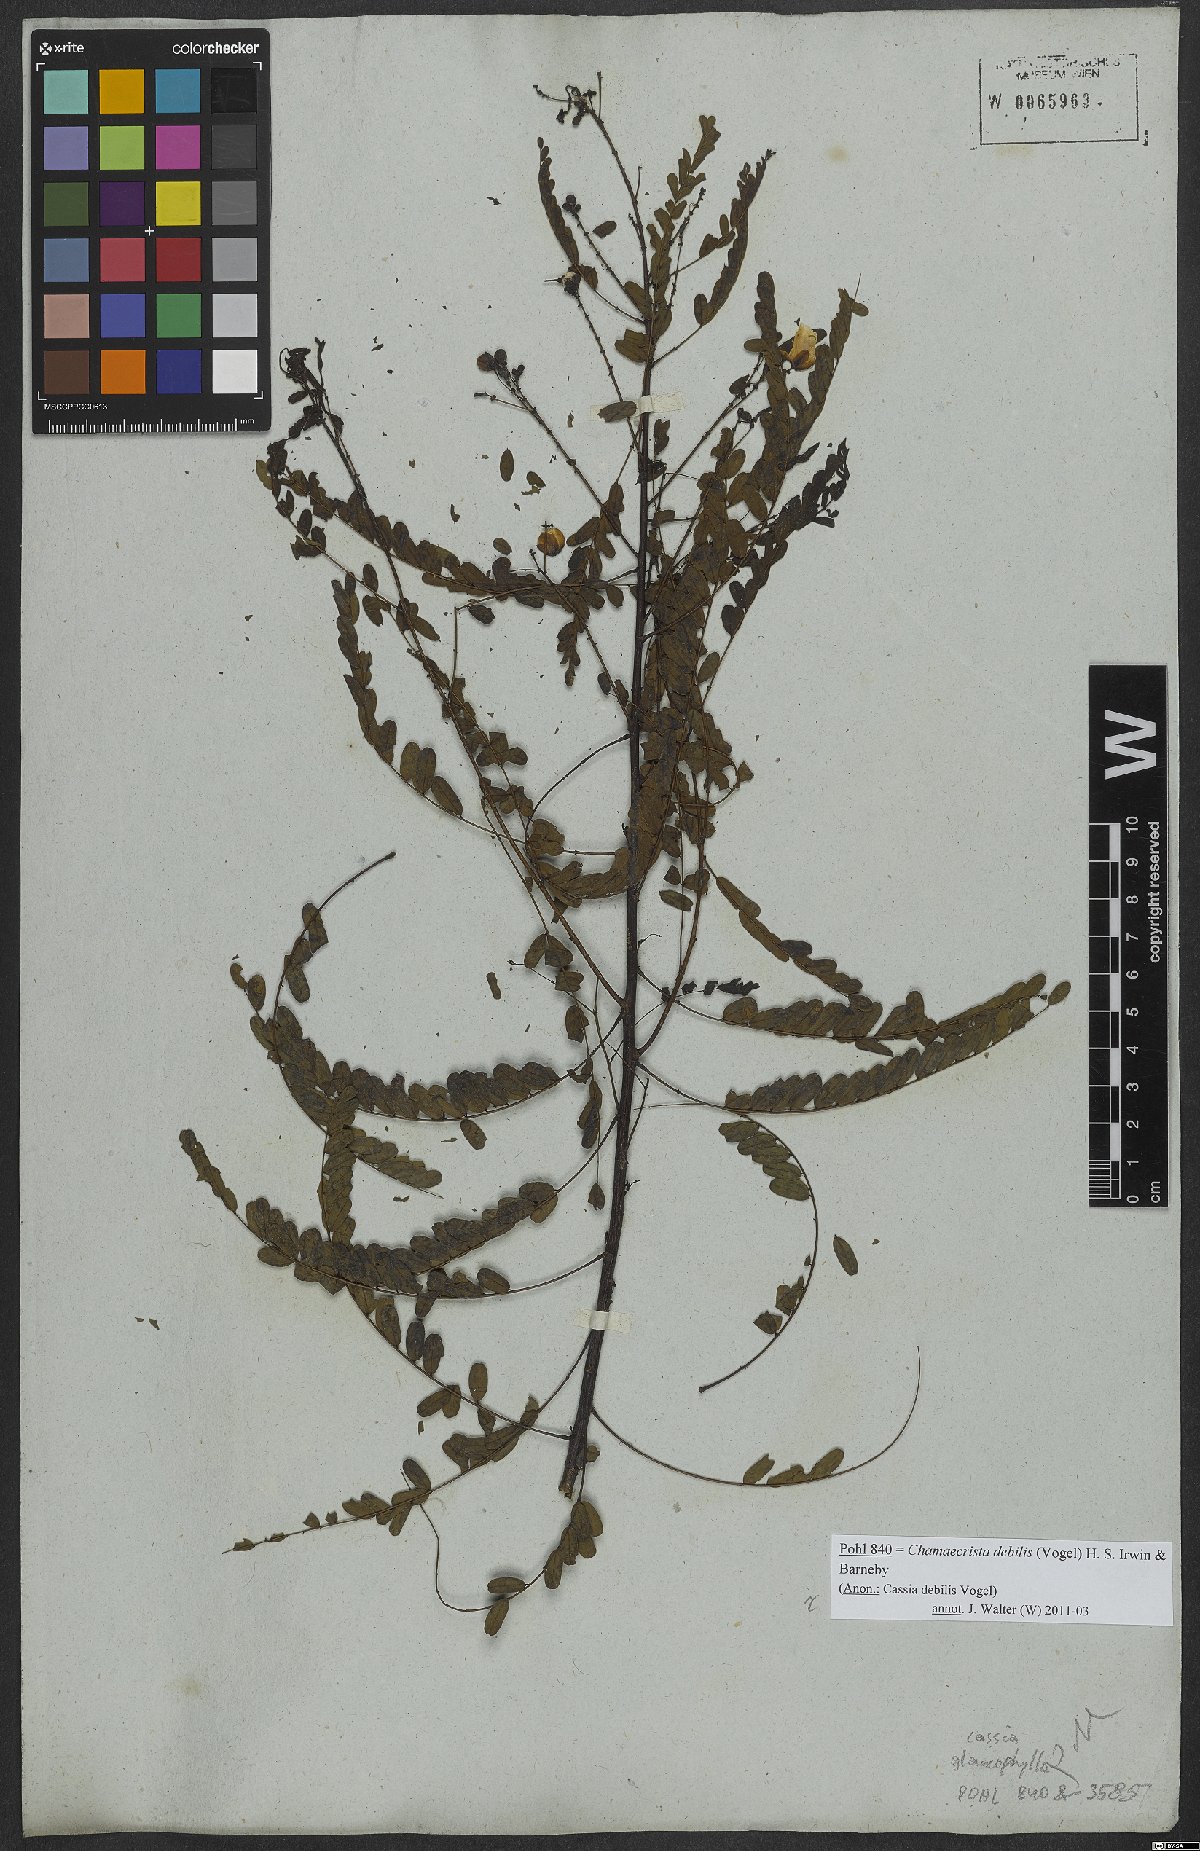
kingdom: Plantae
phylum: Tracheophyta
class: Magnoliopsida
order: Fabales
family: Fabaceae
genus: Chamaecrista
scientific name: Chamaecrista debilis
